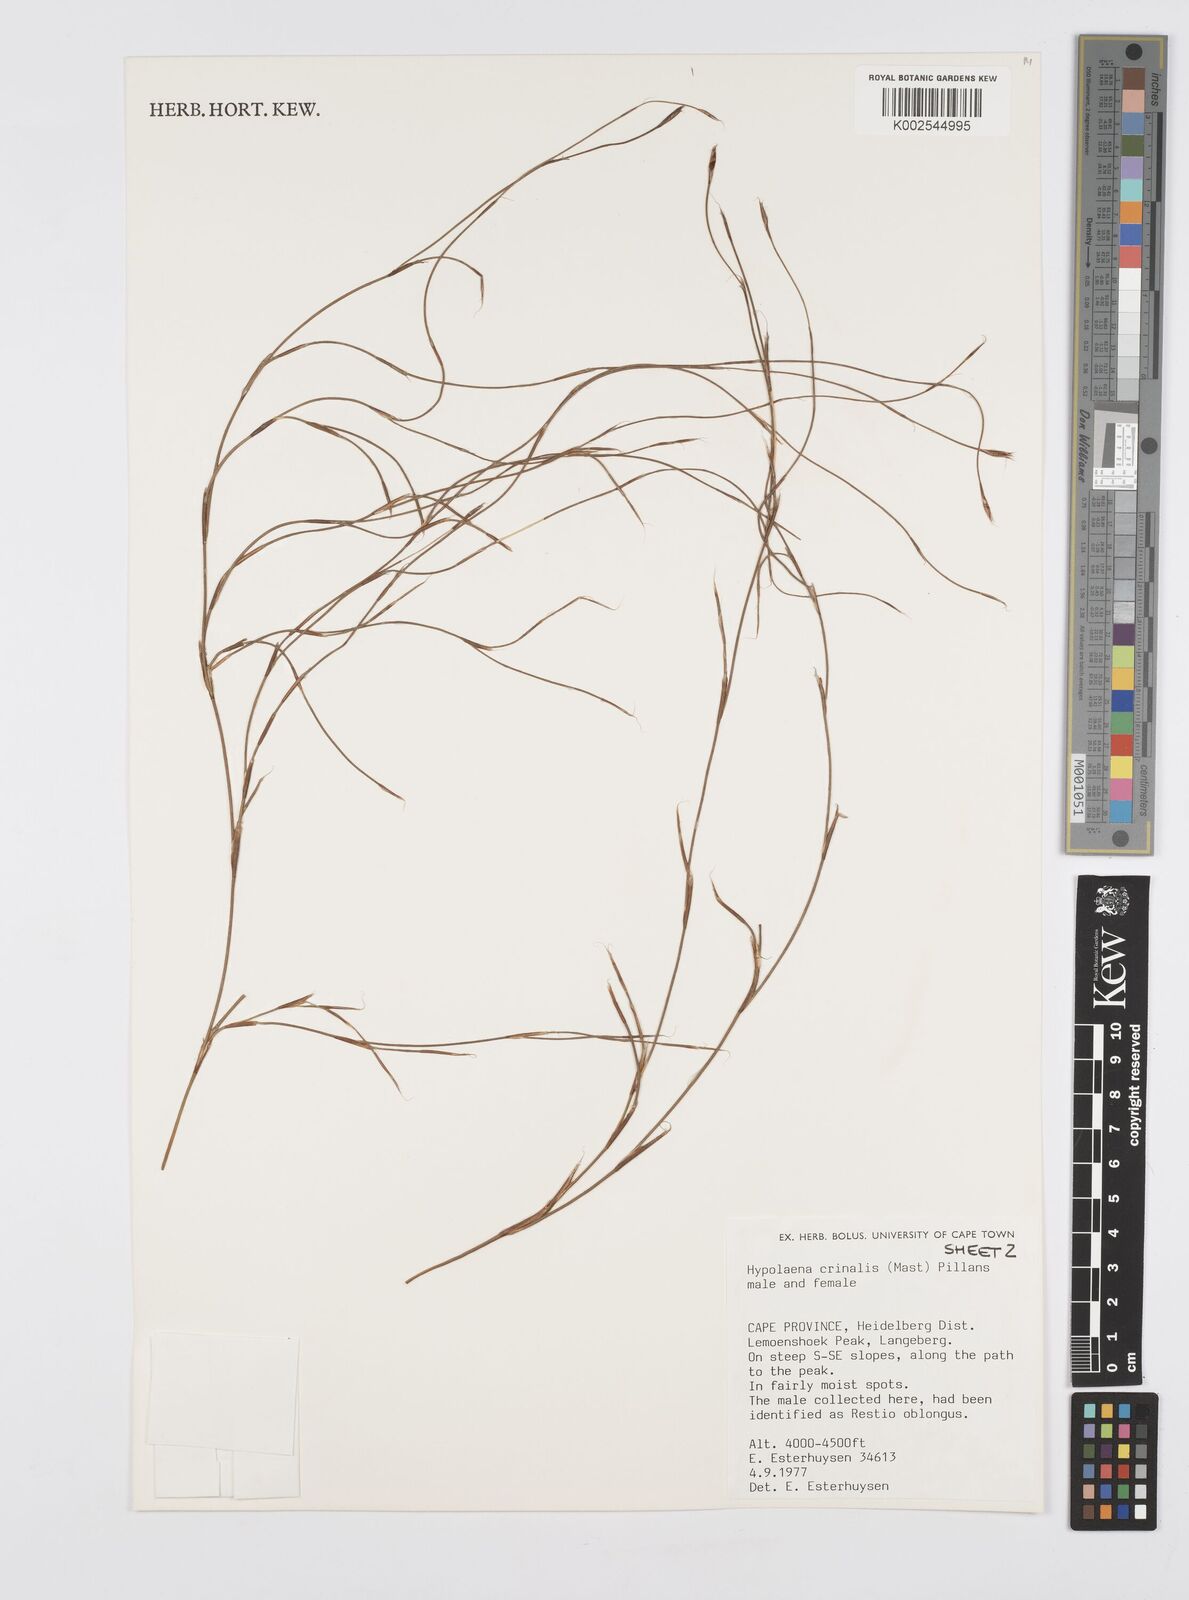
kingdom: Plantae
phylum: Tracheophyta
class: Liliopsida
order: Poales
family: Restionaceae
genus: Anthochortus
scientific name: Anthochortus crinalis
